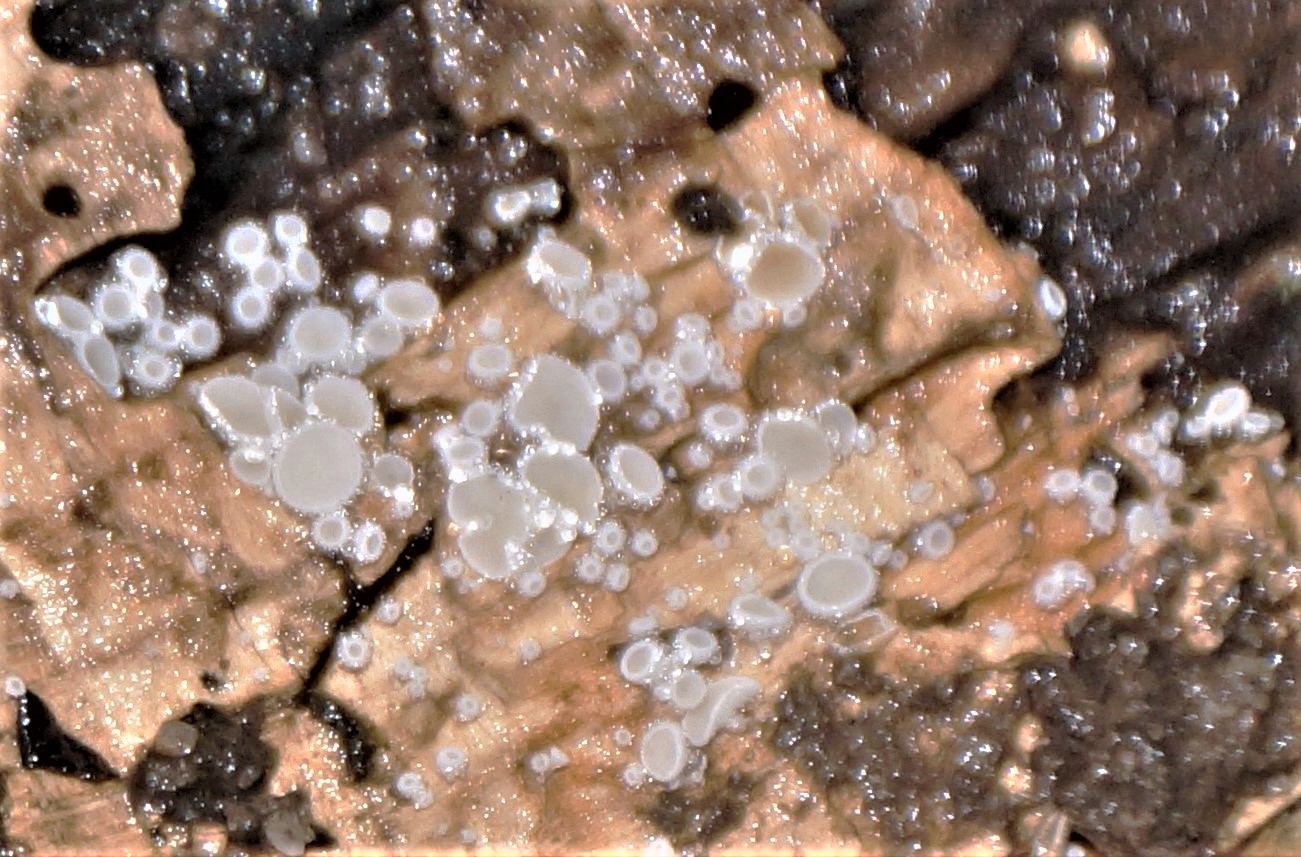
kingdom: Fungi
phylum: Ascomycota
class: Leotiomycetes
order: Helotiales
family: Lachnaceae
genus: Lachnum
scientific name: Lachnum
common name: frynseskive
